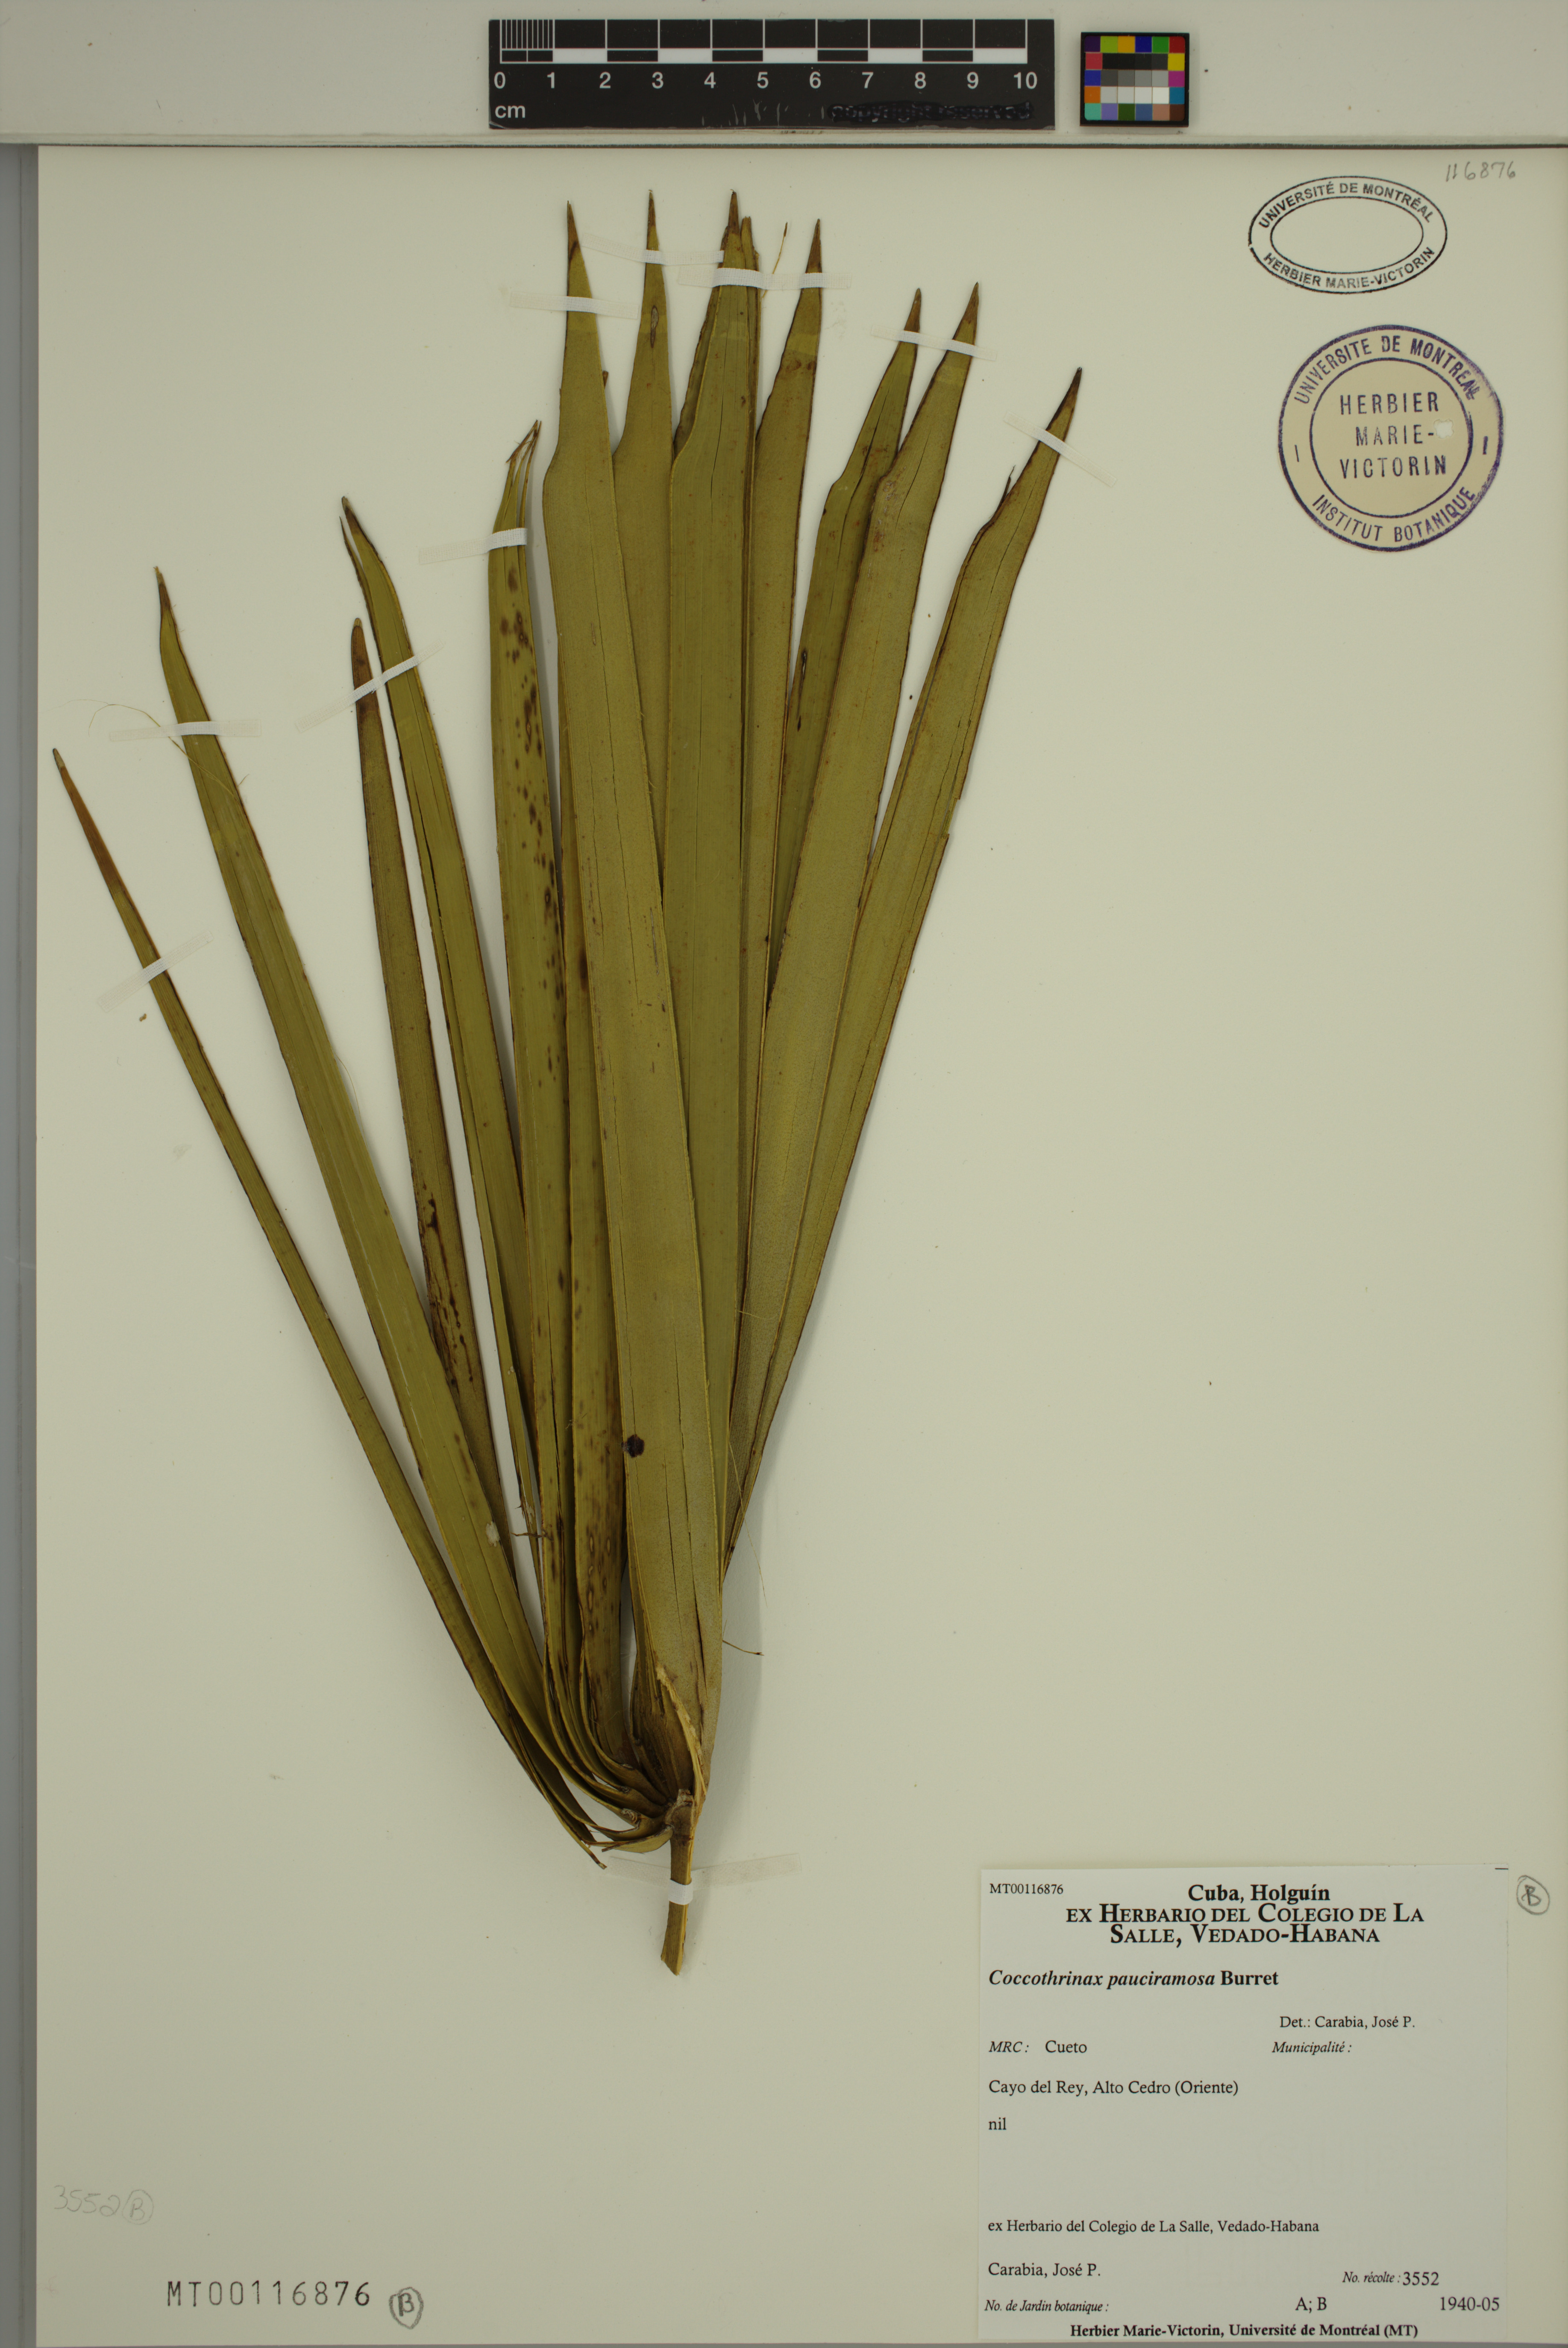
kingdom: Plantae
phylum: Tracheophyta
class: Liliopsida
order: Arecales
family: Arecaceae
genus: Coccothrinax
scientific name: Coccothrinax pauciramosa
